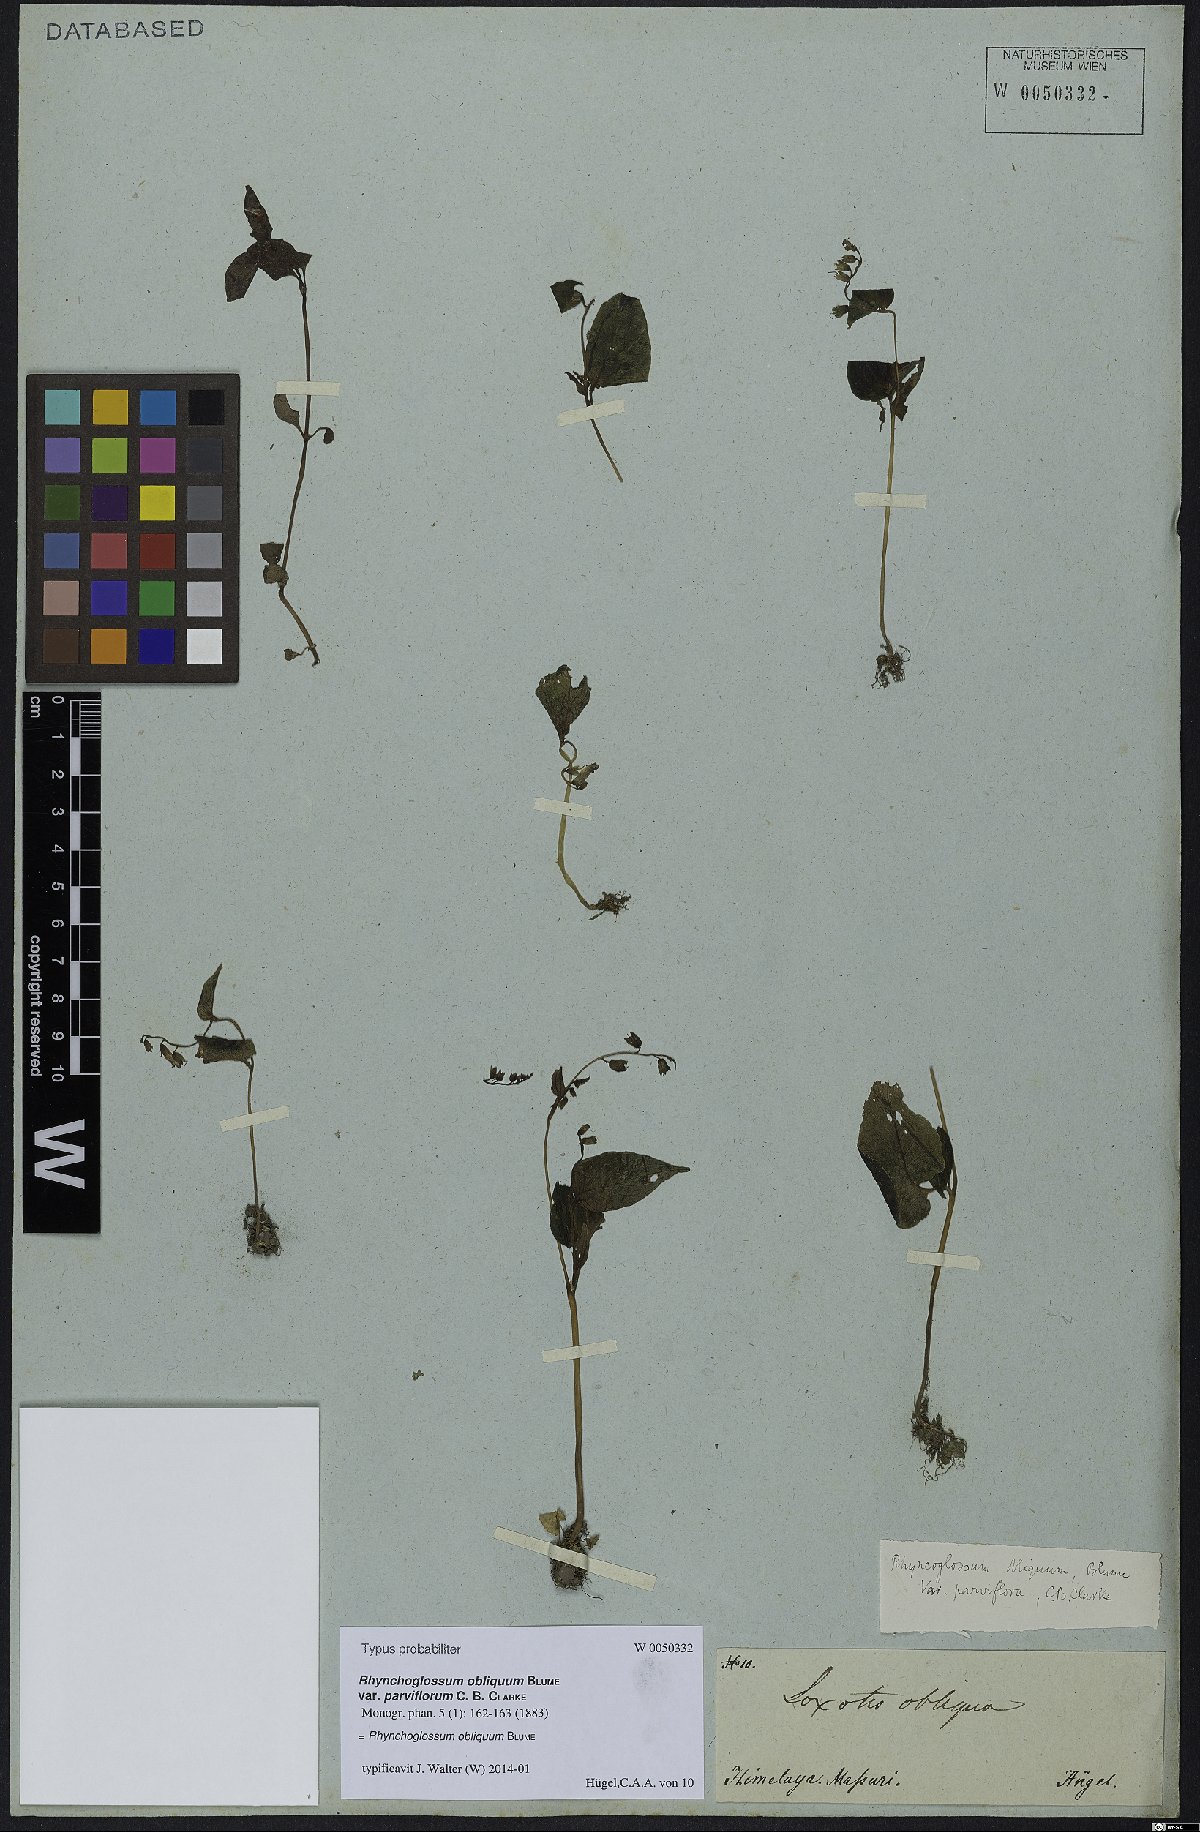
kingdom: Plantae
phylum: Tracheophyta
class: Magnoliopsida
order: Lamiales
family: Gesneriaceae
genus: Rhynchoglossum
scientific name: Rhynchoglossum obliquum
